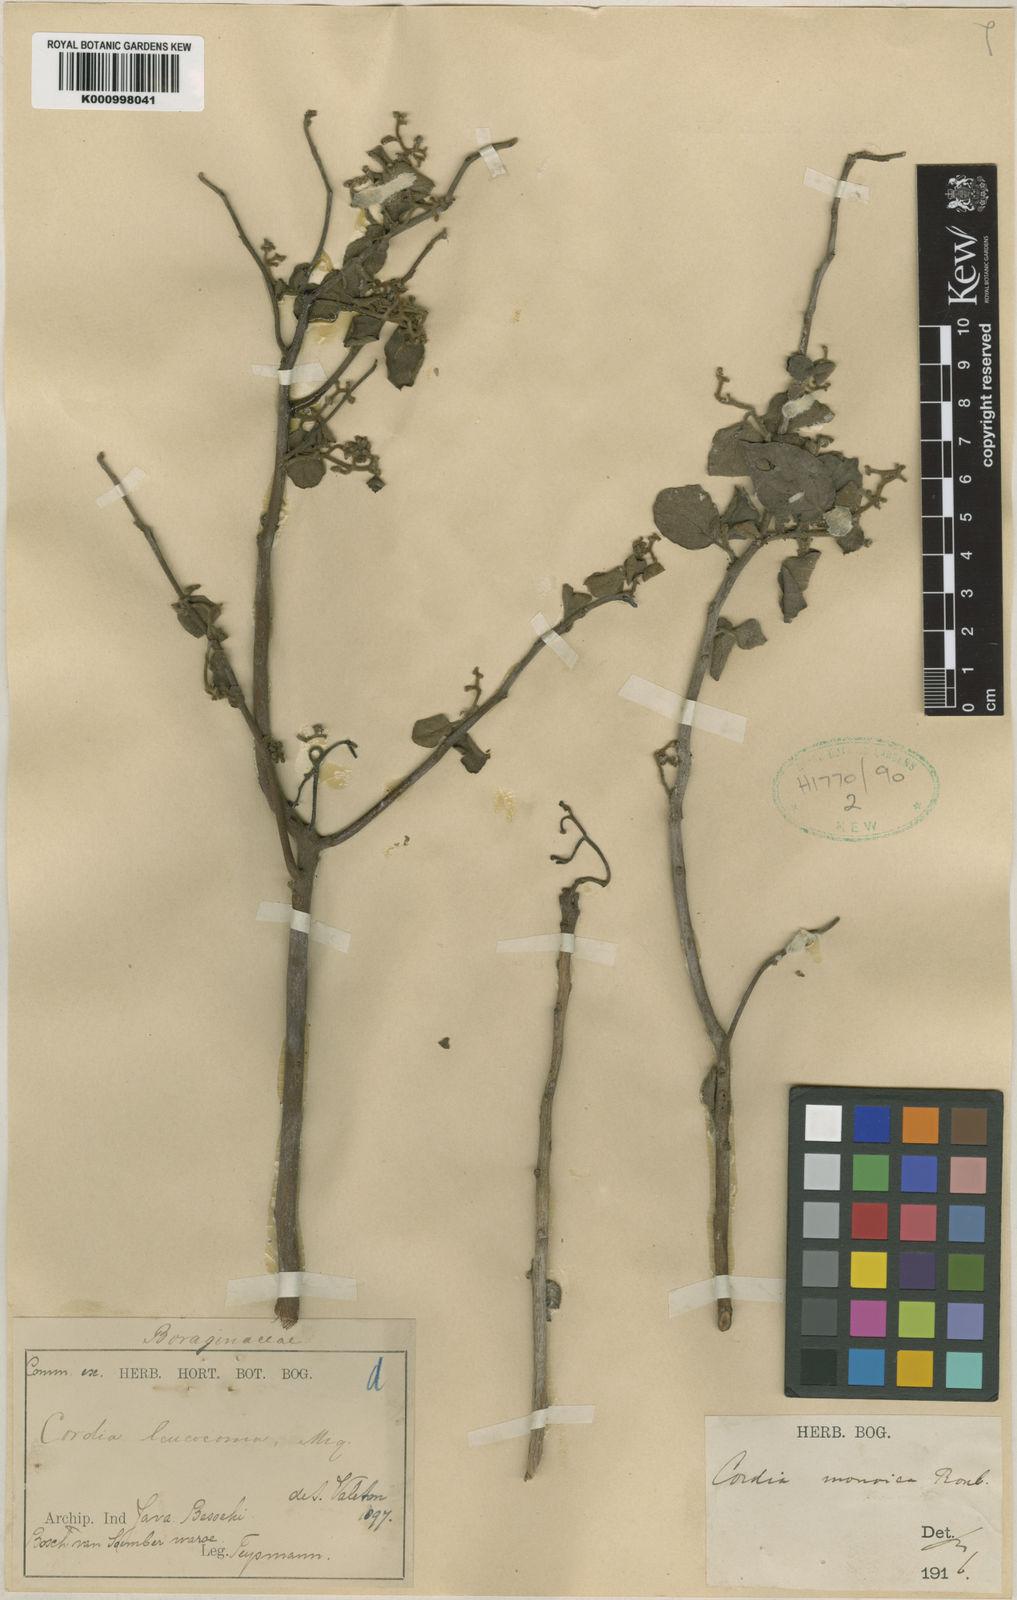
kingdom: Plantae
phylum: Tracheophyta
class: Magnoliopsida
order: Boraginales
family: Cordiaceae
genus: Cordia
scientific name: Cordia monoica
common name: Snot berry
